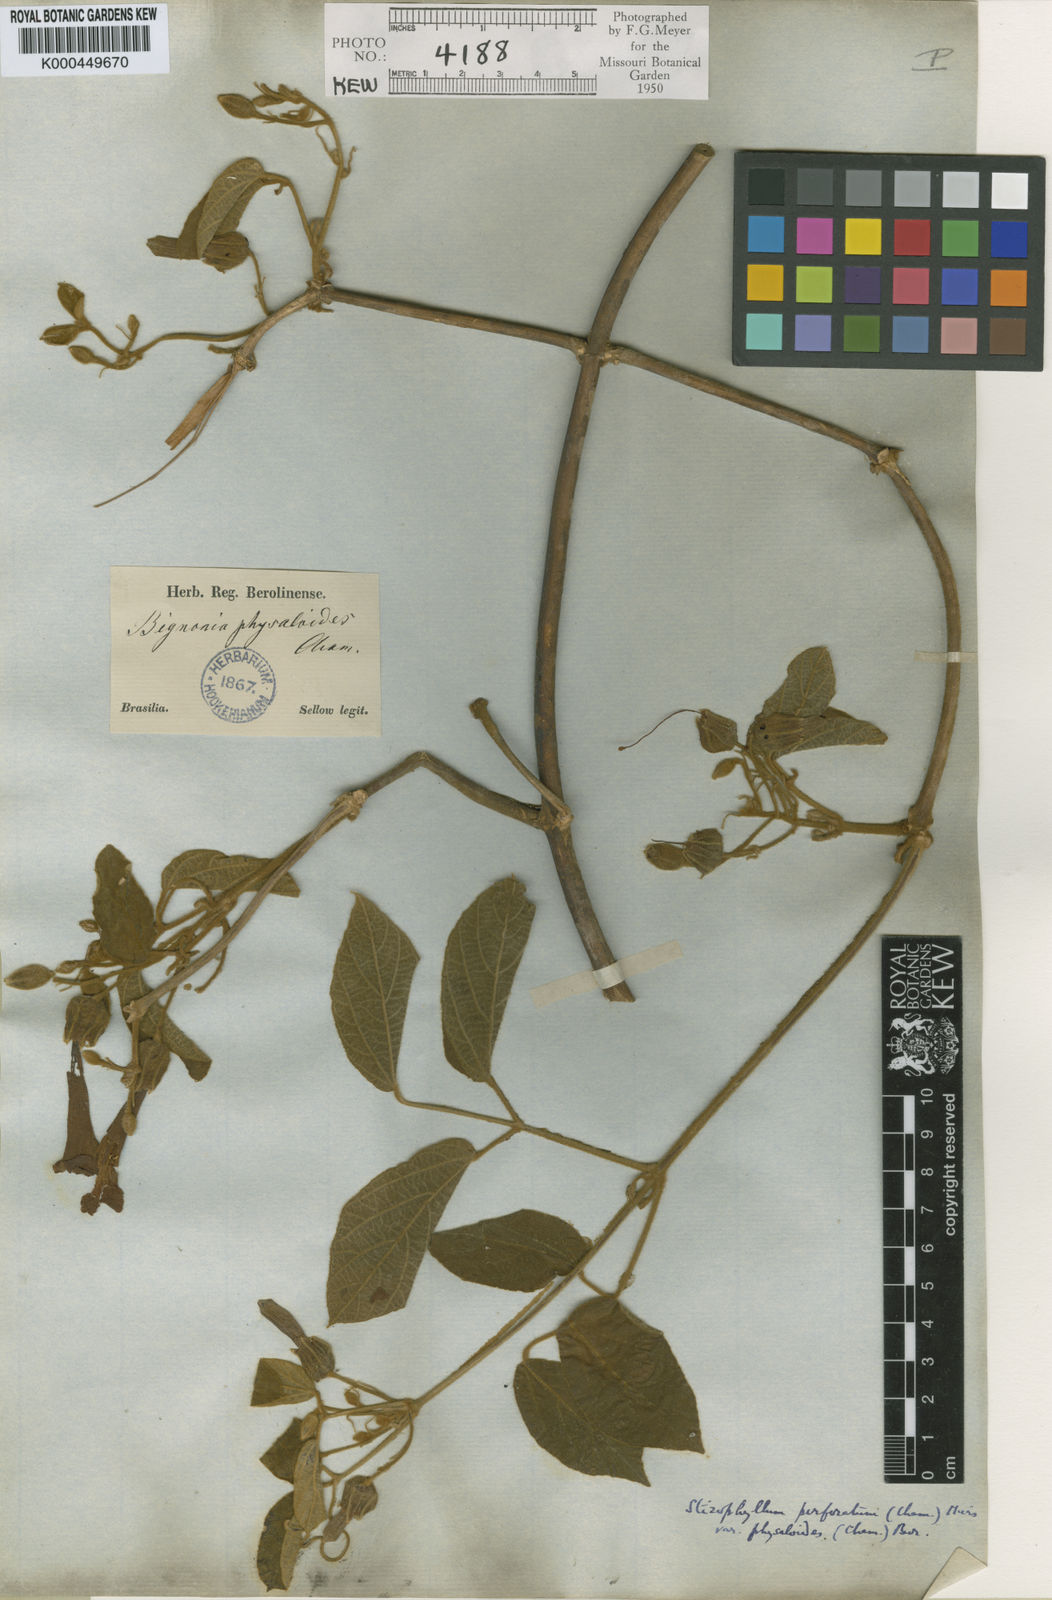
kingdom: Plantae
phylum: Tracheophyta
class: Magnoliopsida
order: Lamiales
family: Bignoniaceae
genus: Stizophyllum
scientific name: Stizophyllum perforatum
